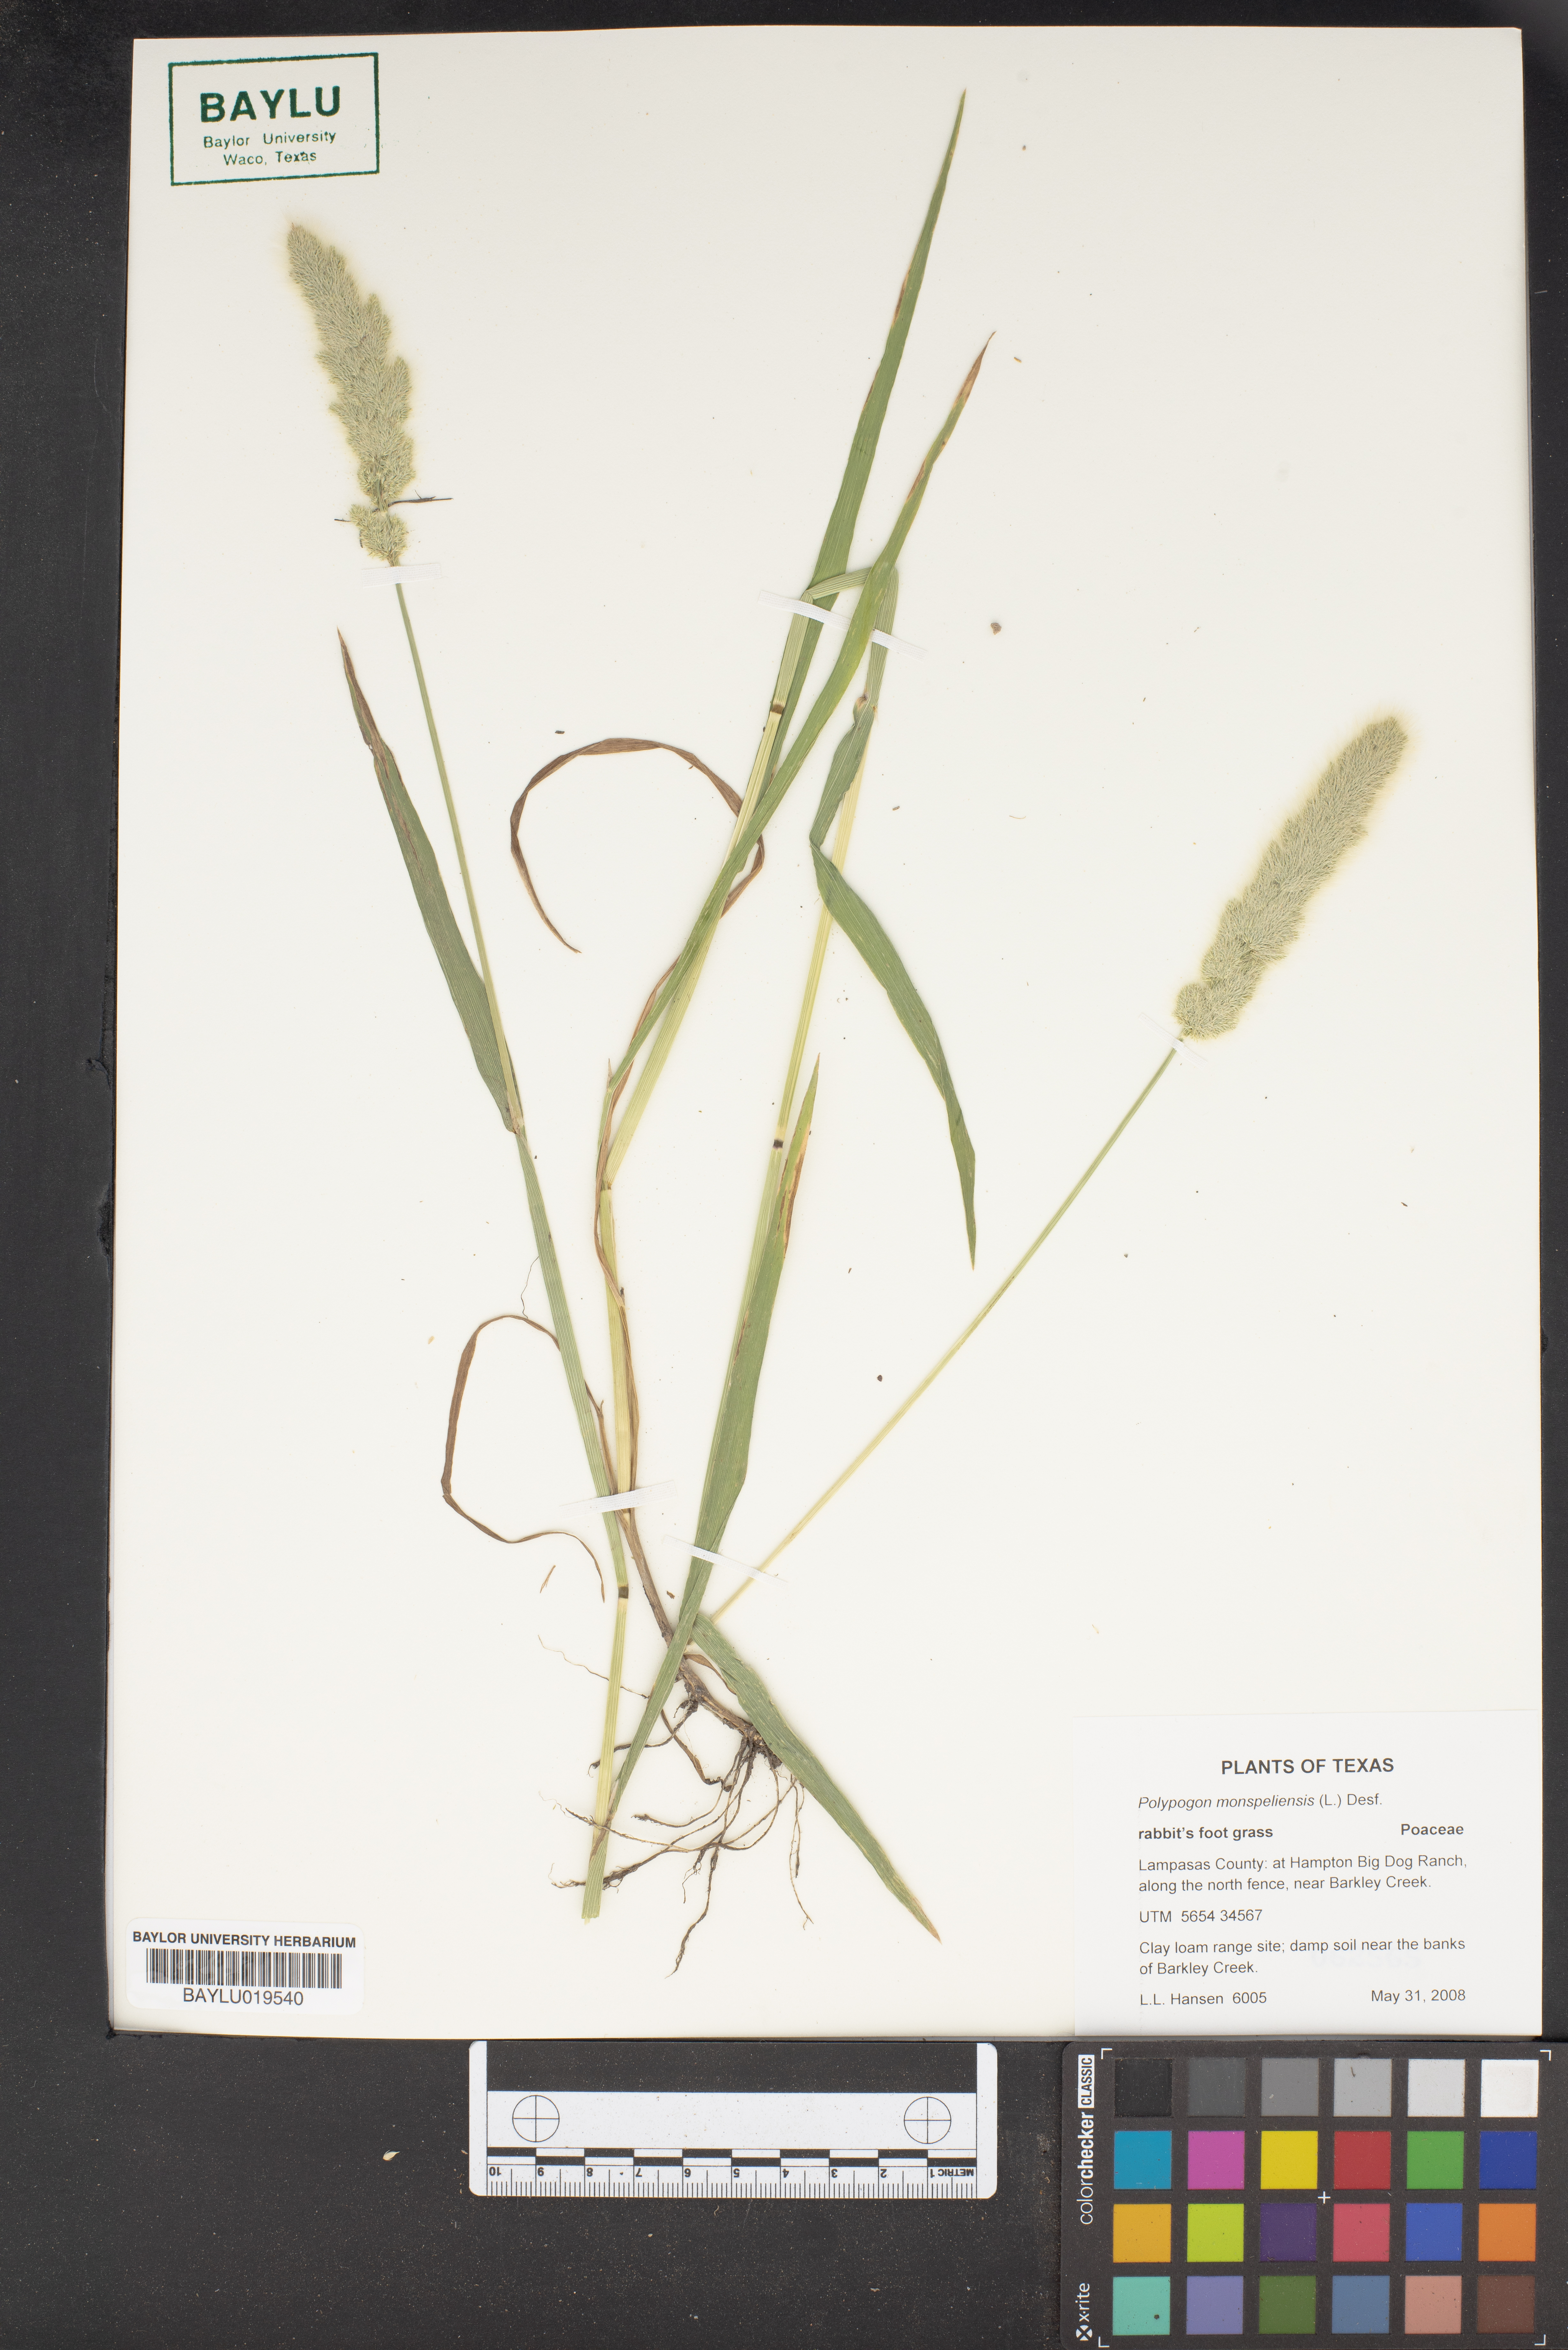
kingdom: Plantae
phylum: Tracheophyta
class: Liliopsida
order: Poales
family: Poaceae
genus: Polypogon
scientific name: Polypogon monspeliensis
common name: Annual rabbitsfoot grass
